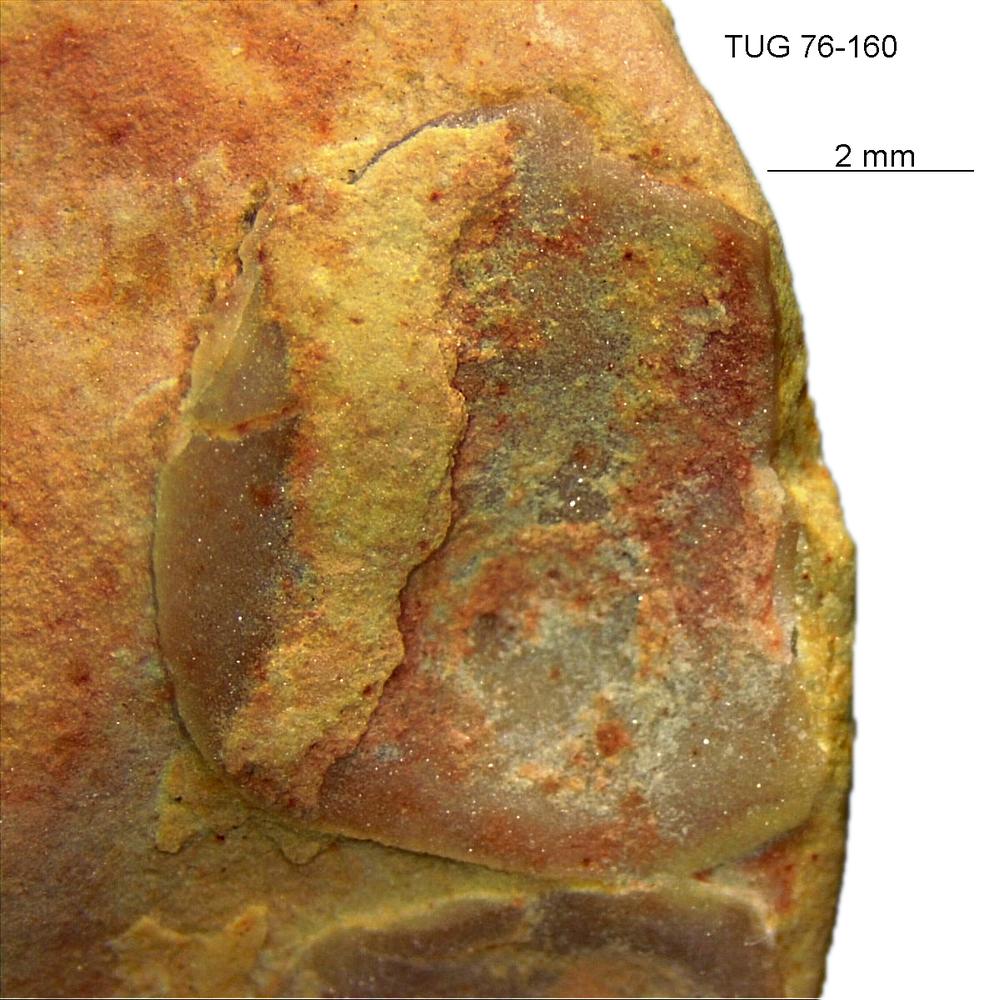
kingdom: Animalia
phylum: Brachiopoda
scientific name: Brachiopoda
